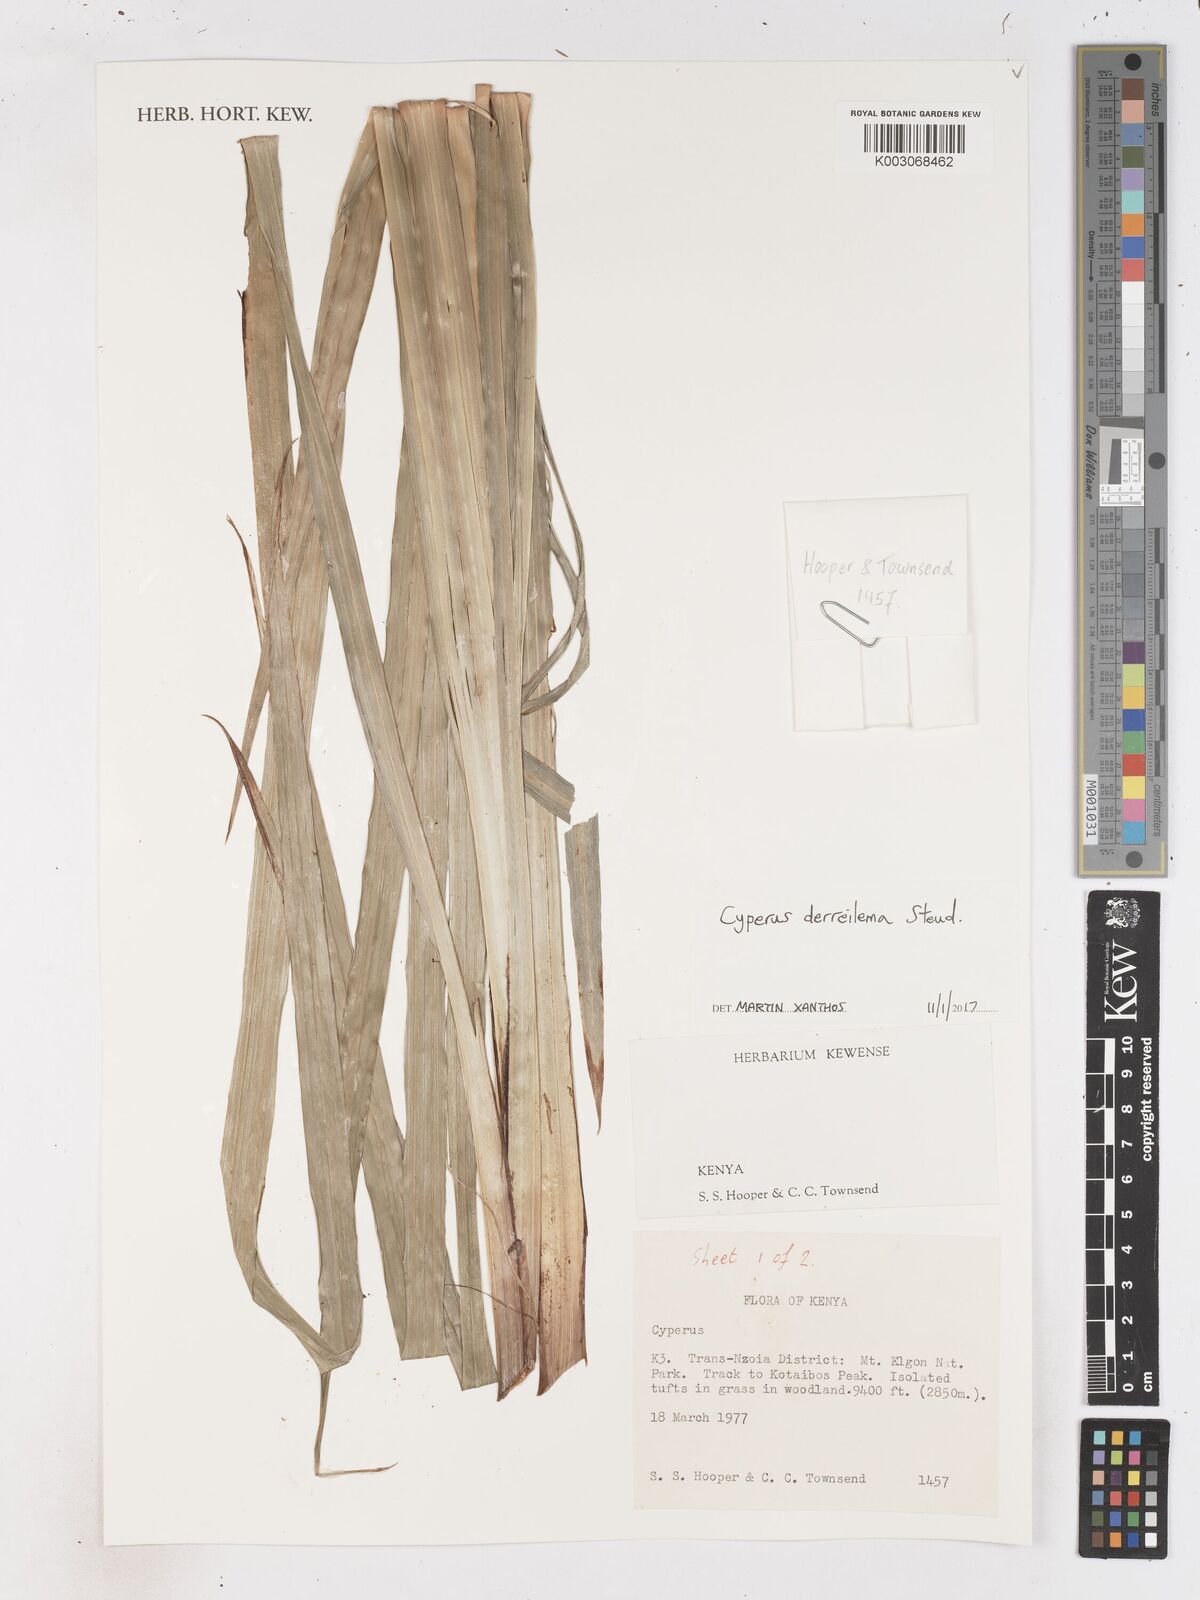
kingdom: Plantae
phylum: Tracheophyta
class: Liliopsida
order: Poales
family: Cyperaceae
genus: Cyperus
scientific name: Cyperus derreilema
